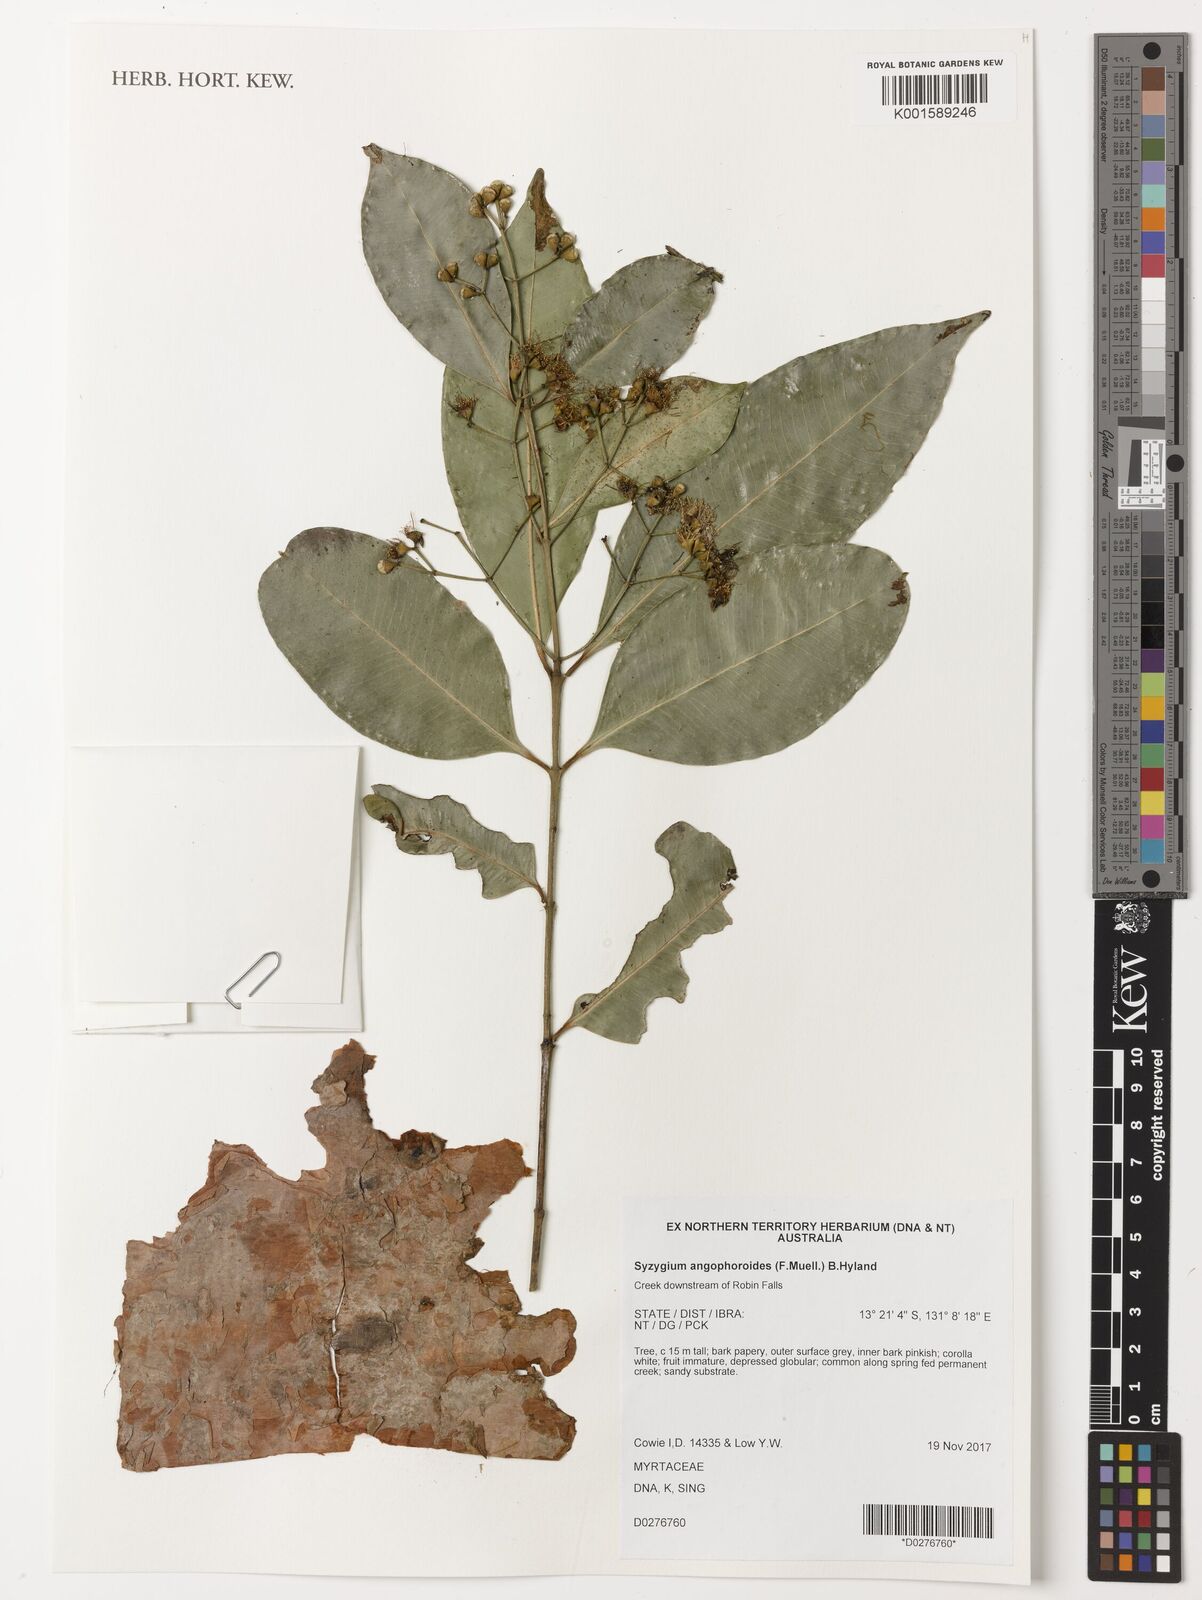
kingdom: Plantae
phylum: Tracheophyta
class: Magnoliopsida
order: Myrtales
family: Myrtaceae
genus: Syzygium
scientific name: Syzygium angophoroides
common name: Swamp satinash
